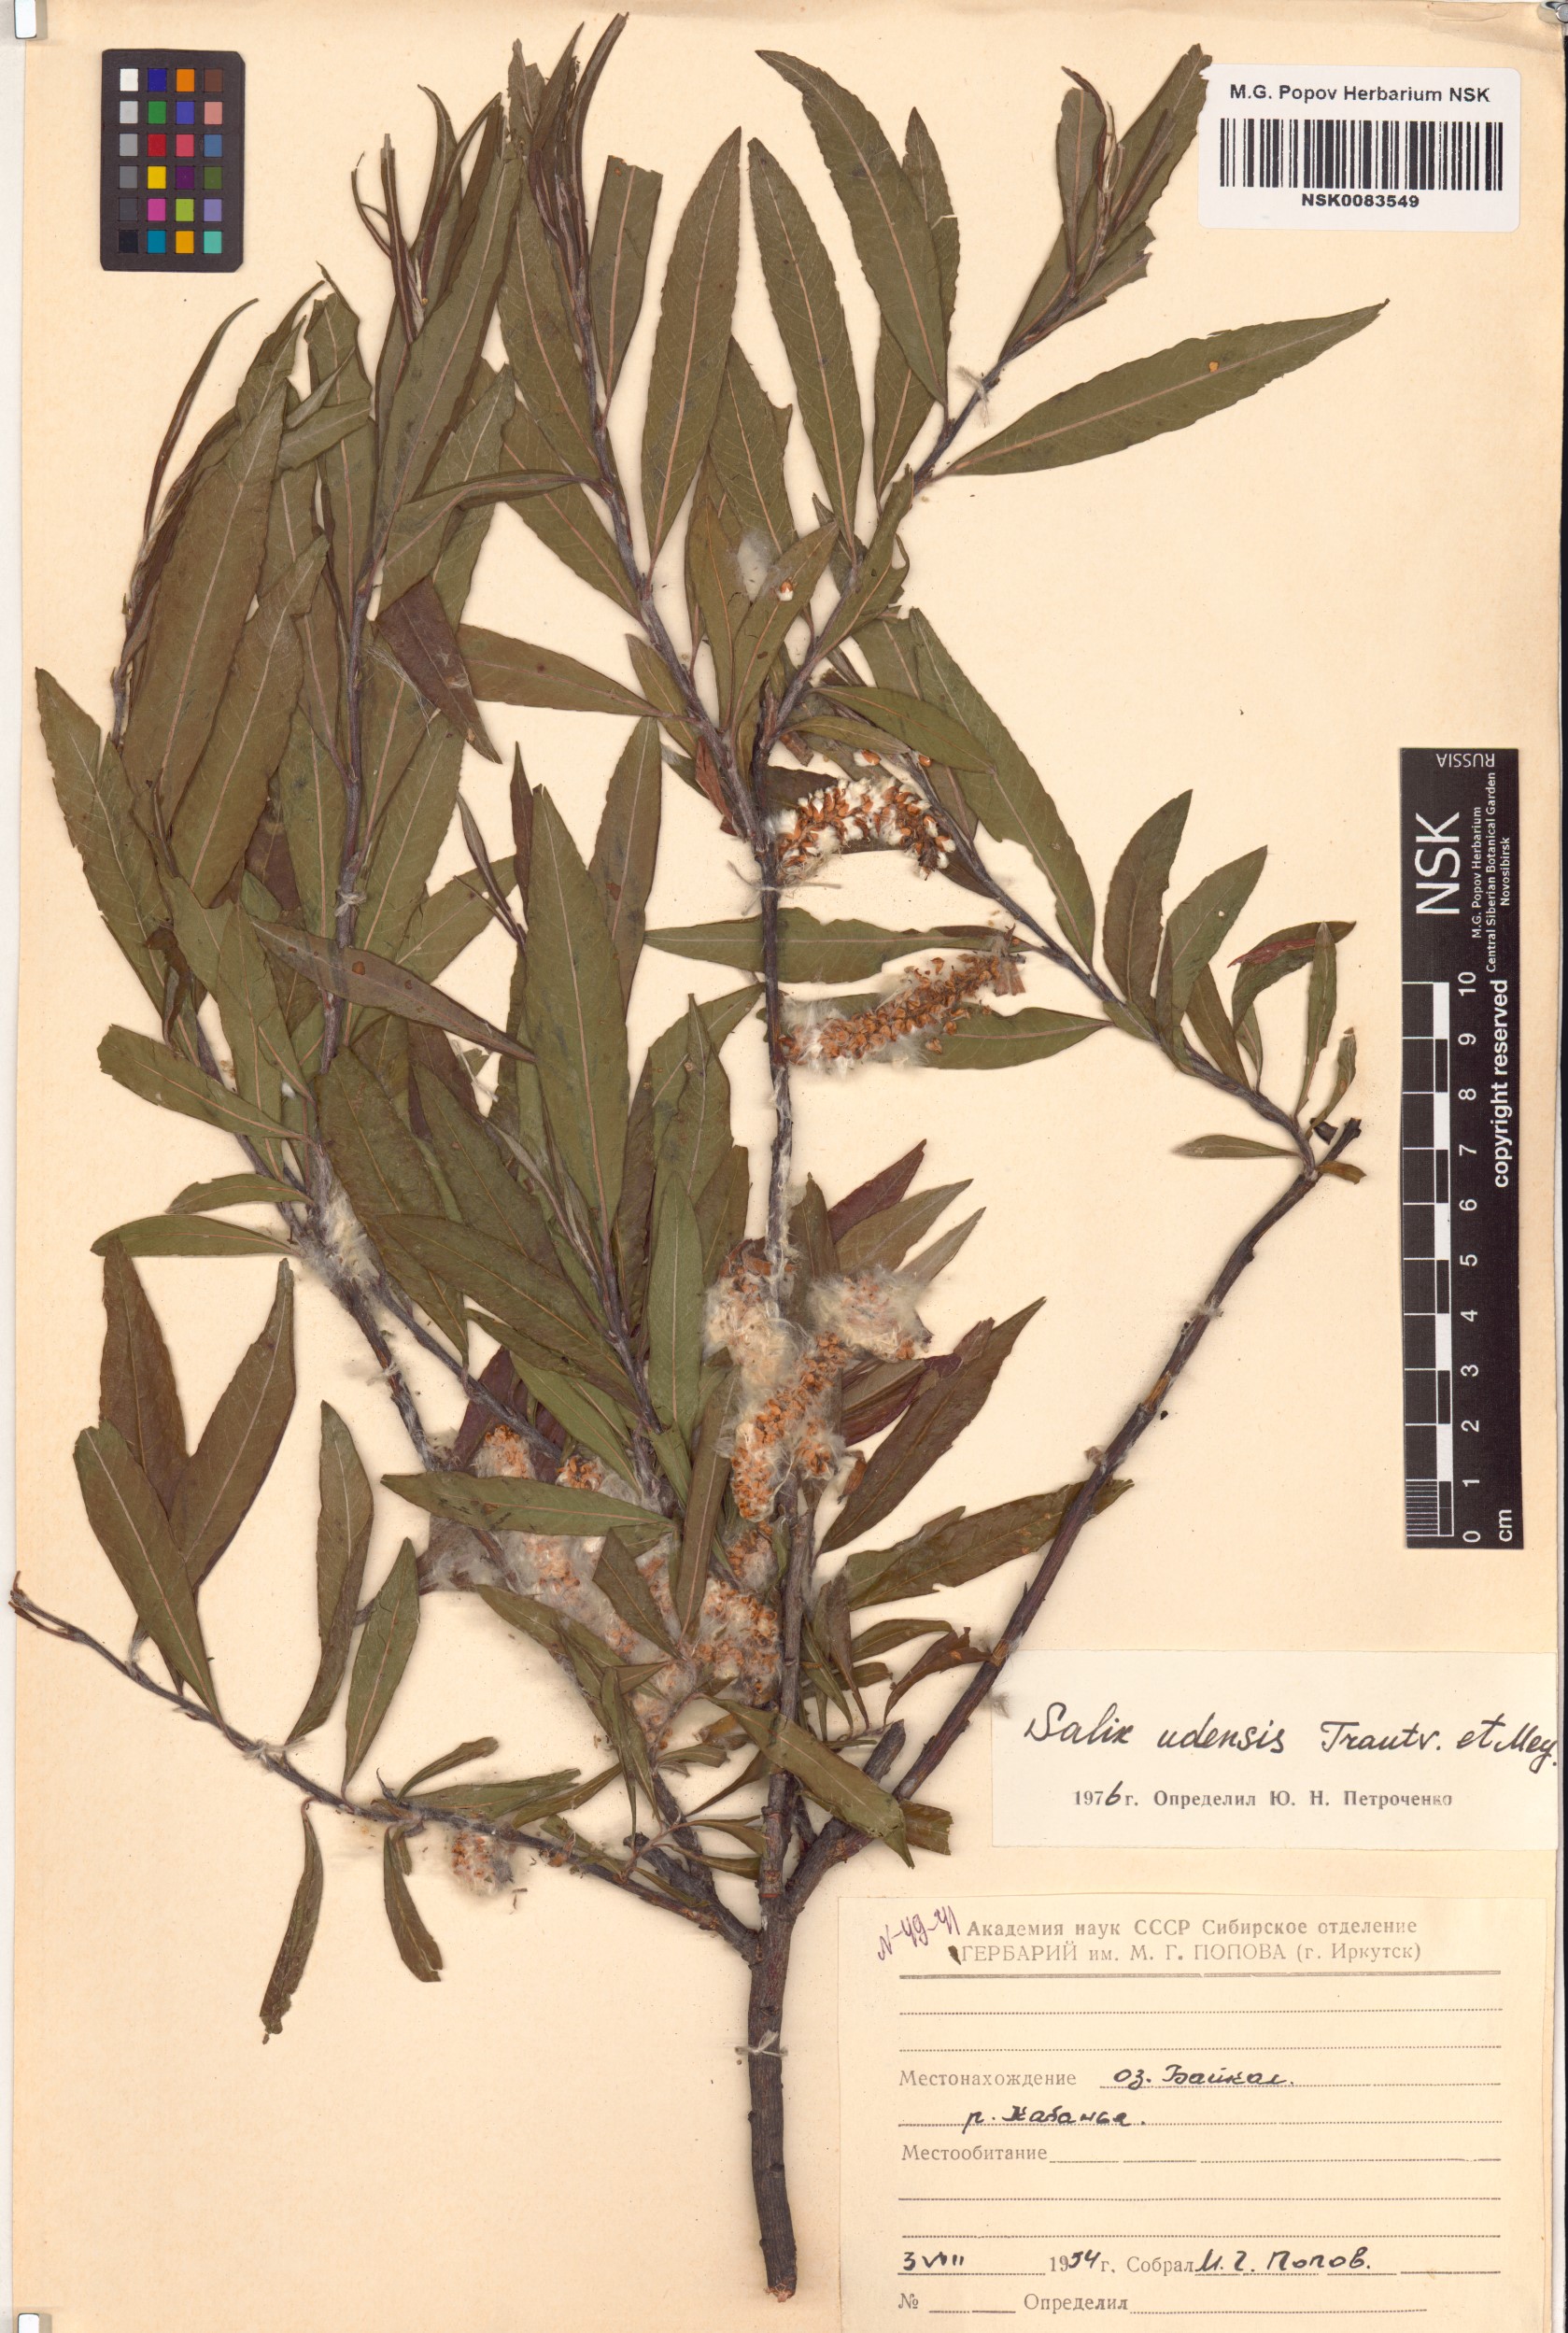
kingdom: Plantae
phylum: Tracheophyta
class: Magnoliopsida
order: Malpighiales
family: Salicaceae
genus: Salix
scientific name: Salix udensis
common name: Sachalin willow
